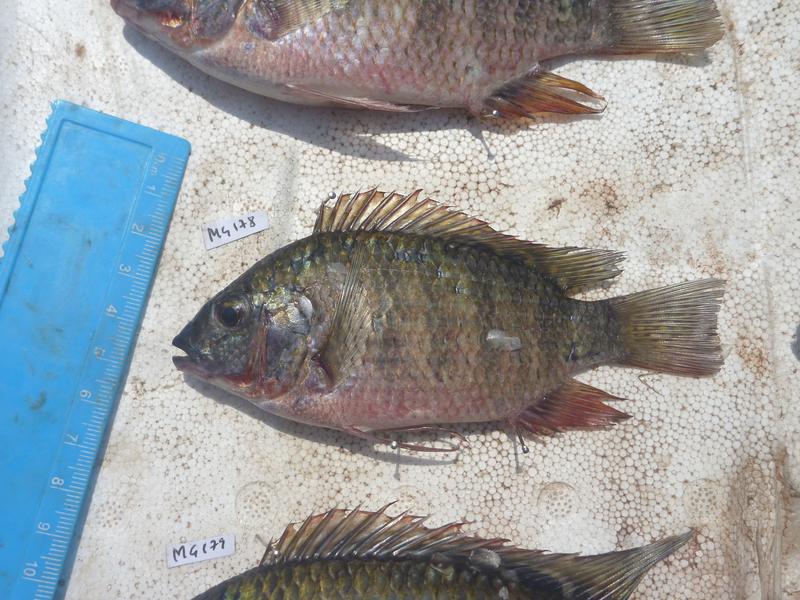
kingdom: Animalia
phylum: Chordata
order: Perciformes
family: Cichlidae
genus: Coptodon
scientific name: Coptodon rendalli
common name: Redbreast tilapia
